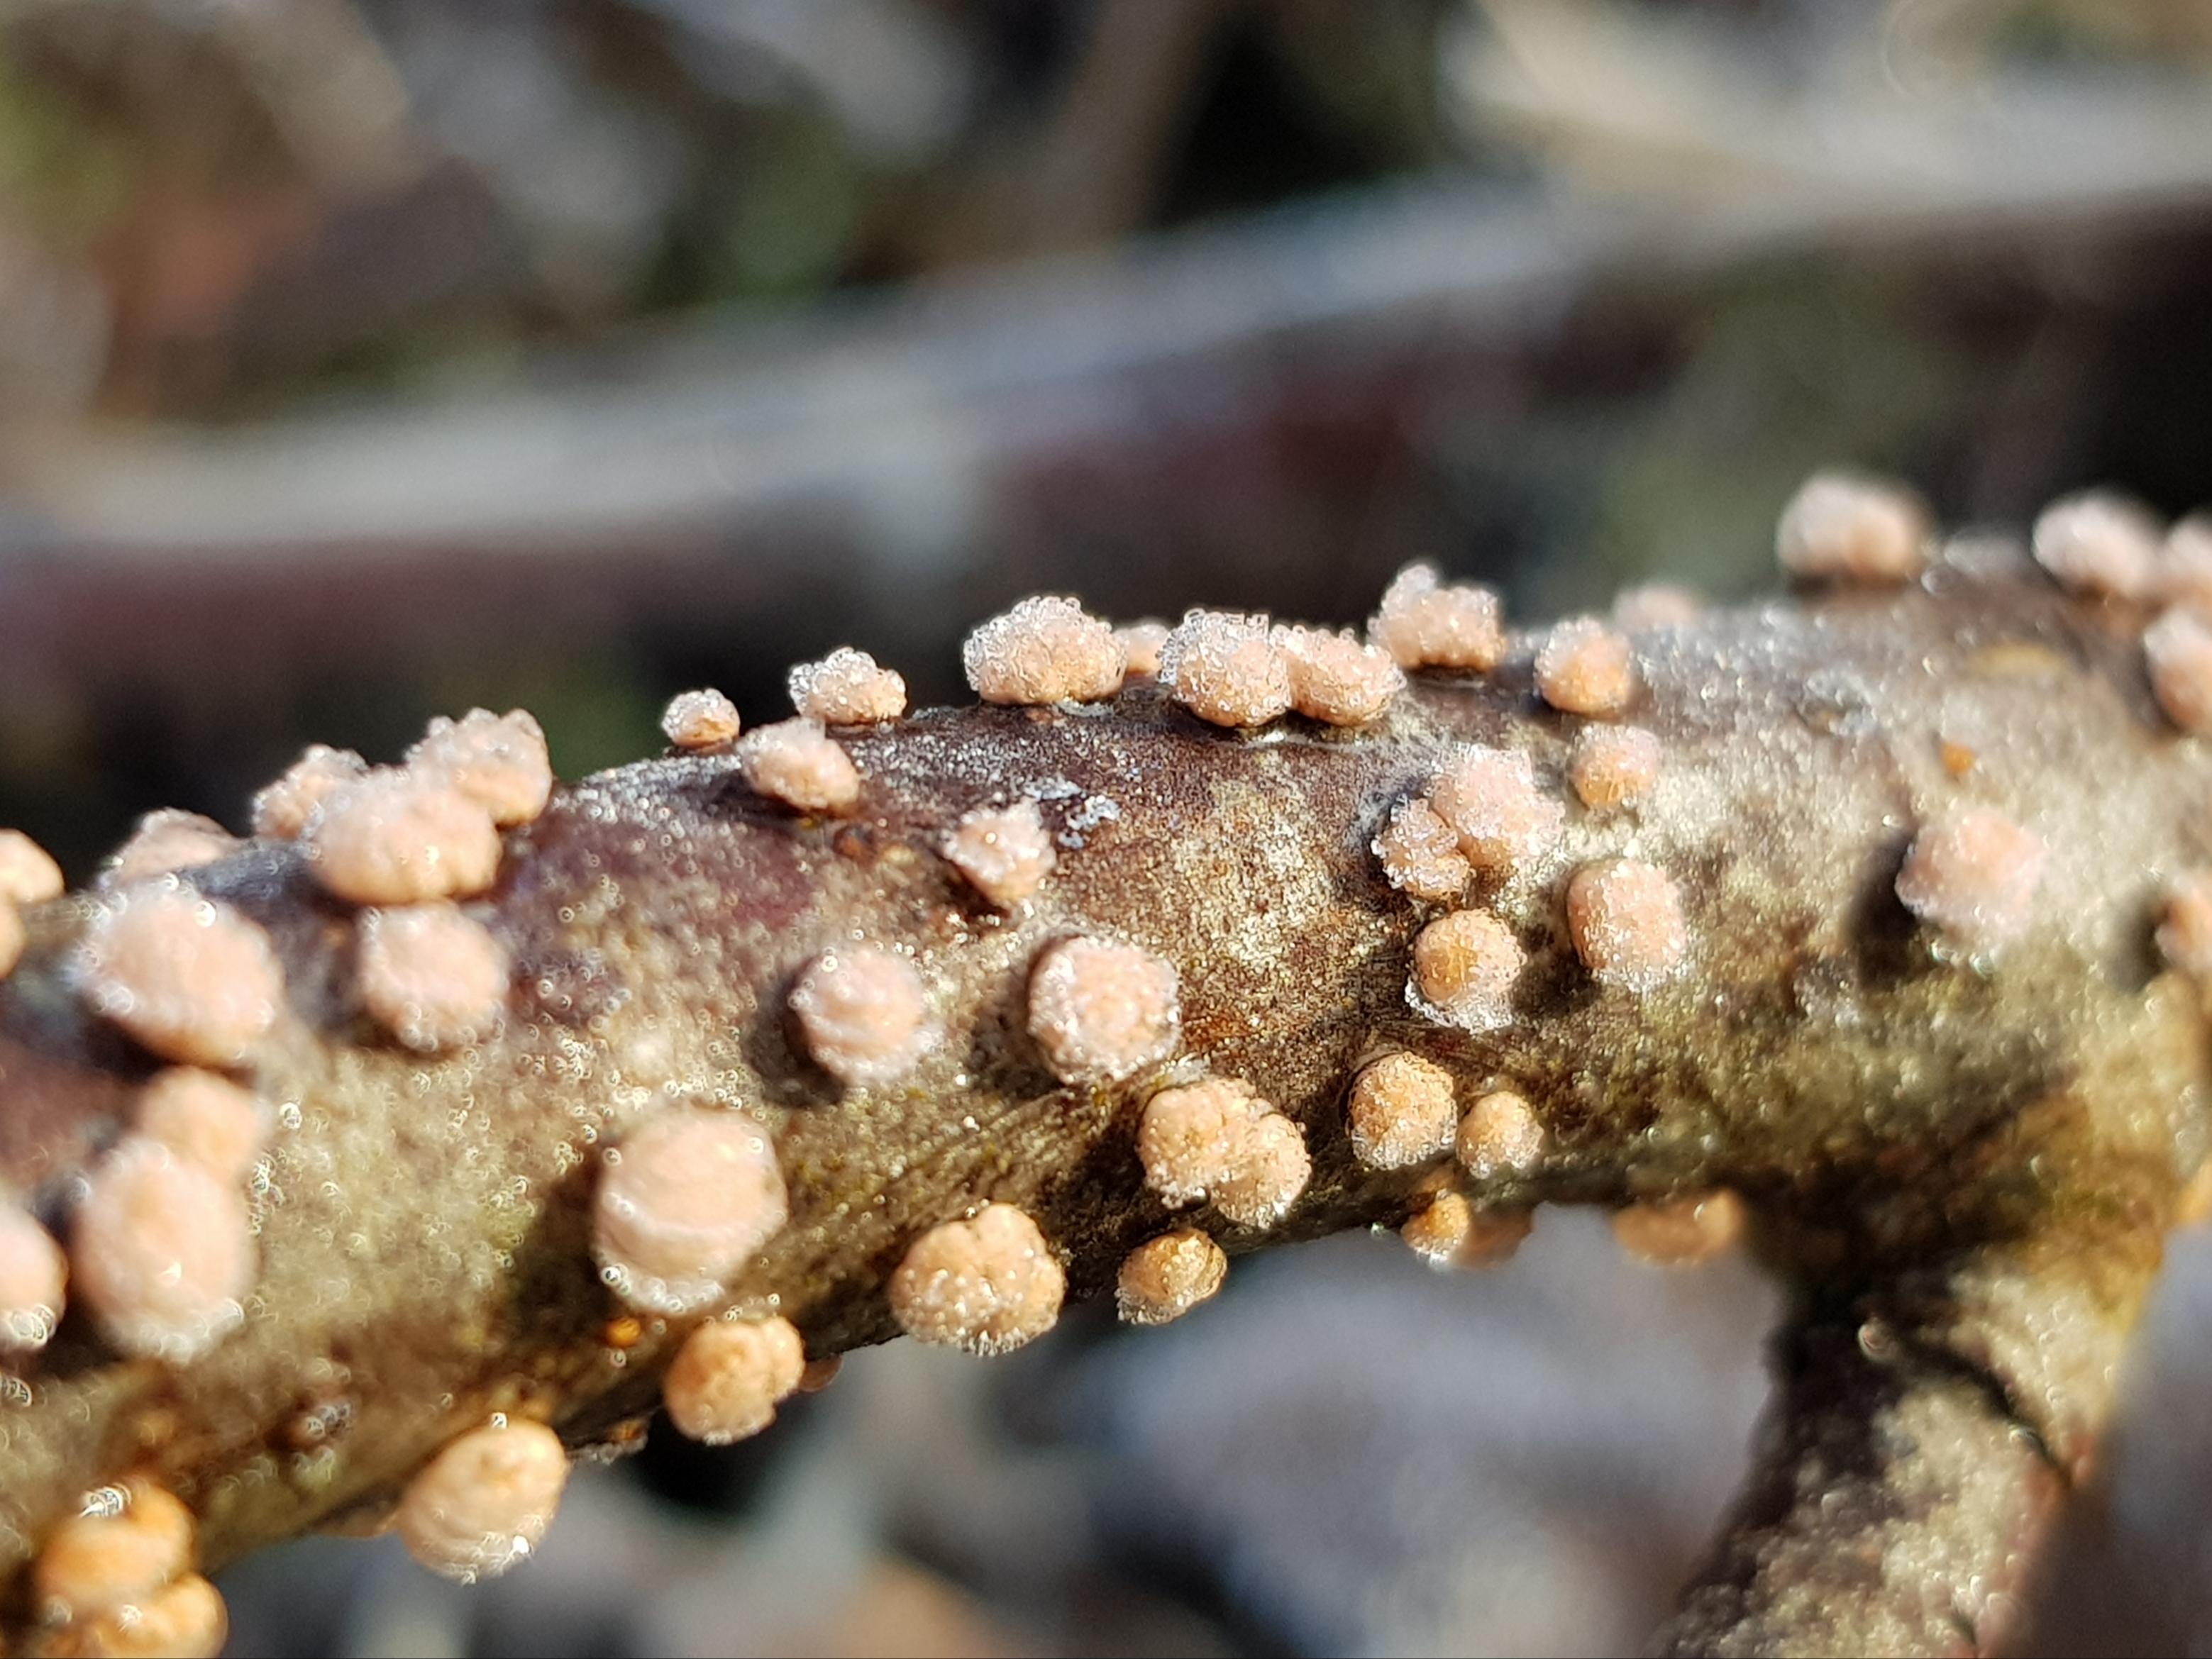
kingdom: Fungi
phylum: Ascomycota
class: Sordariomycetes
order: Hypocreales
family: Nectriaceae
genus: Nectria
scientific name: Nectria cinnabarina
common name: almindelig cinnobersvamp
